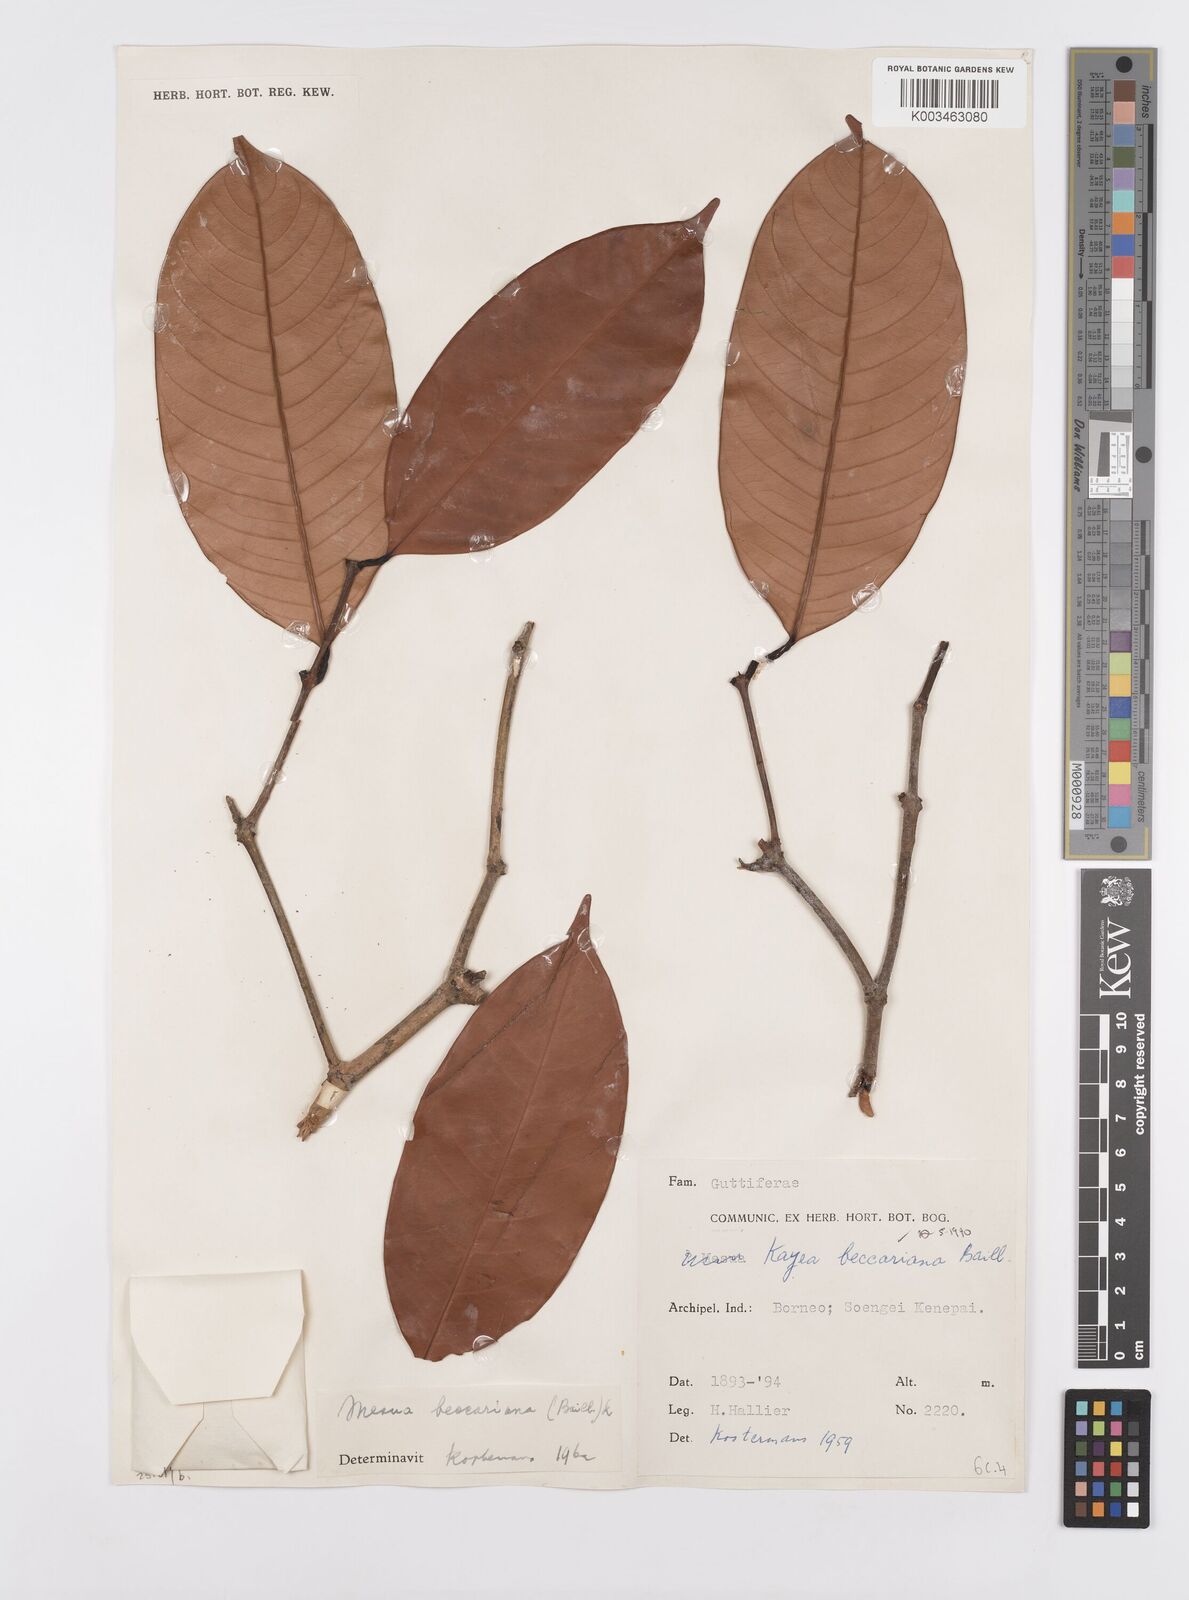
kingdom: Plantae
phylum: Tracheophyta
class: Magnoliopsida
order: Malpighiales
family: Calophyllaceae
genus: Kayea
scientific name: Kayea beccariana
